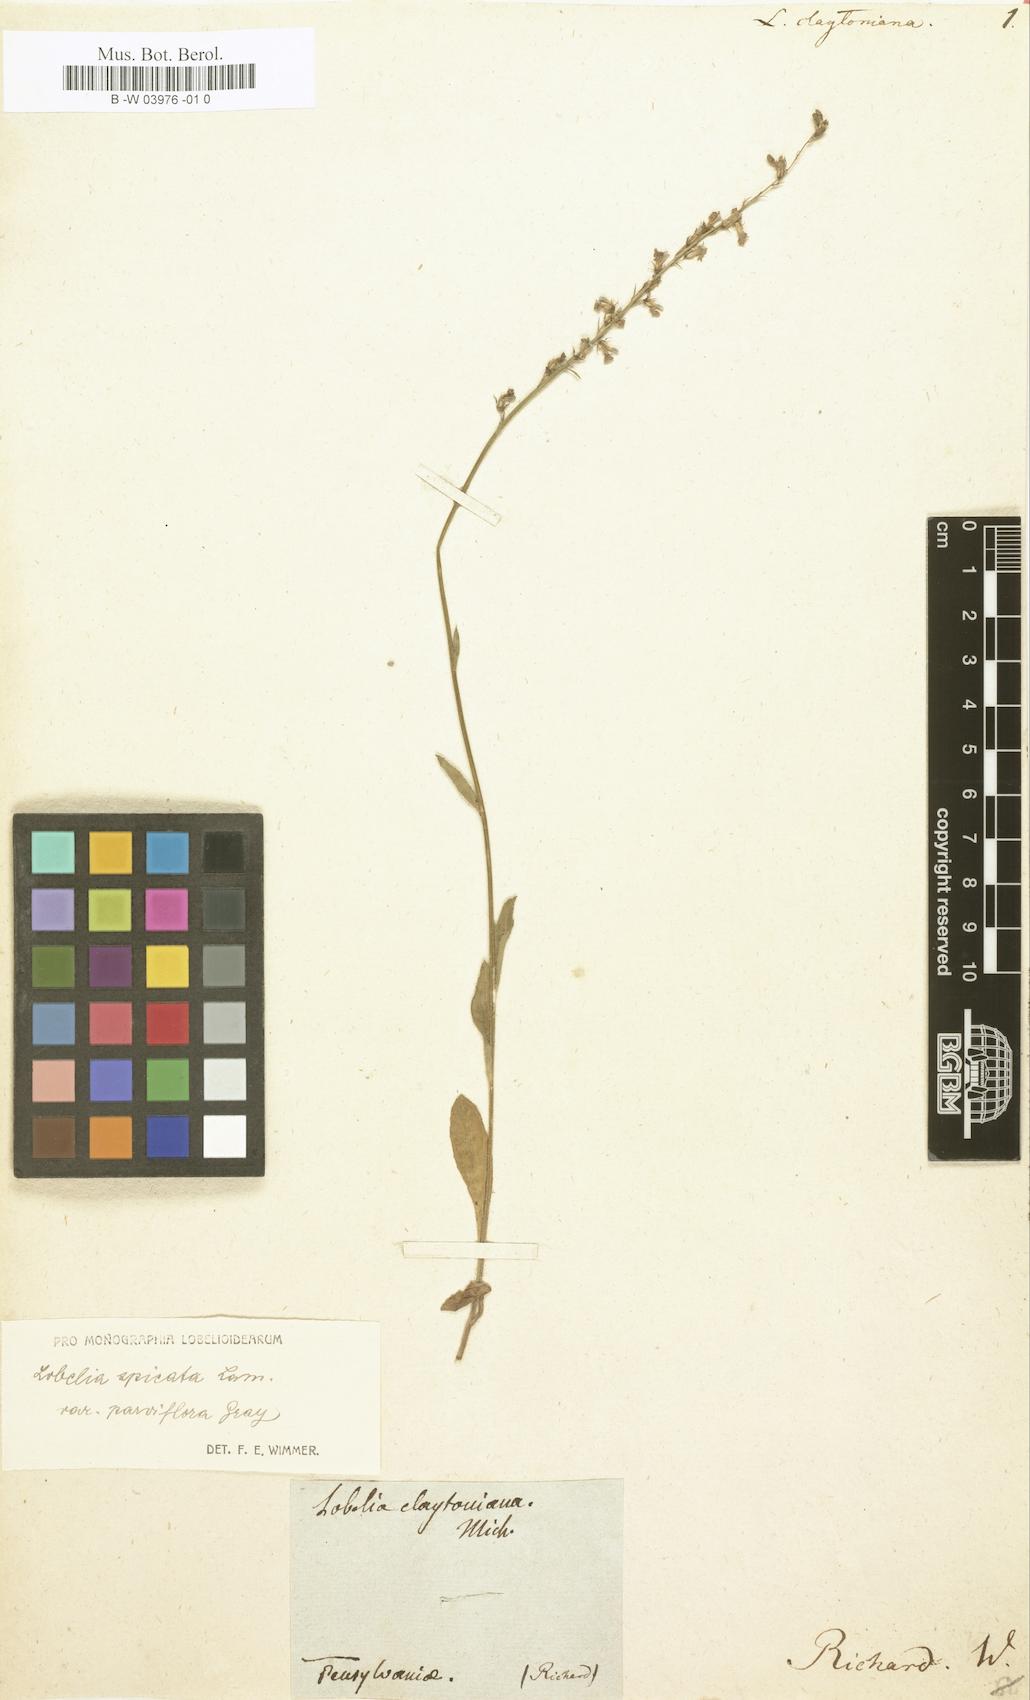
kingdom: Plantae
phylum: Tracheophyta
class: Magnoliopsida
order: Asterales
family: Campanulaceae
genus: Lobelia
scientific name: Lobelia spicata
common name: Pale-spike lobelia
